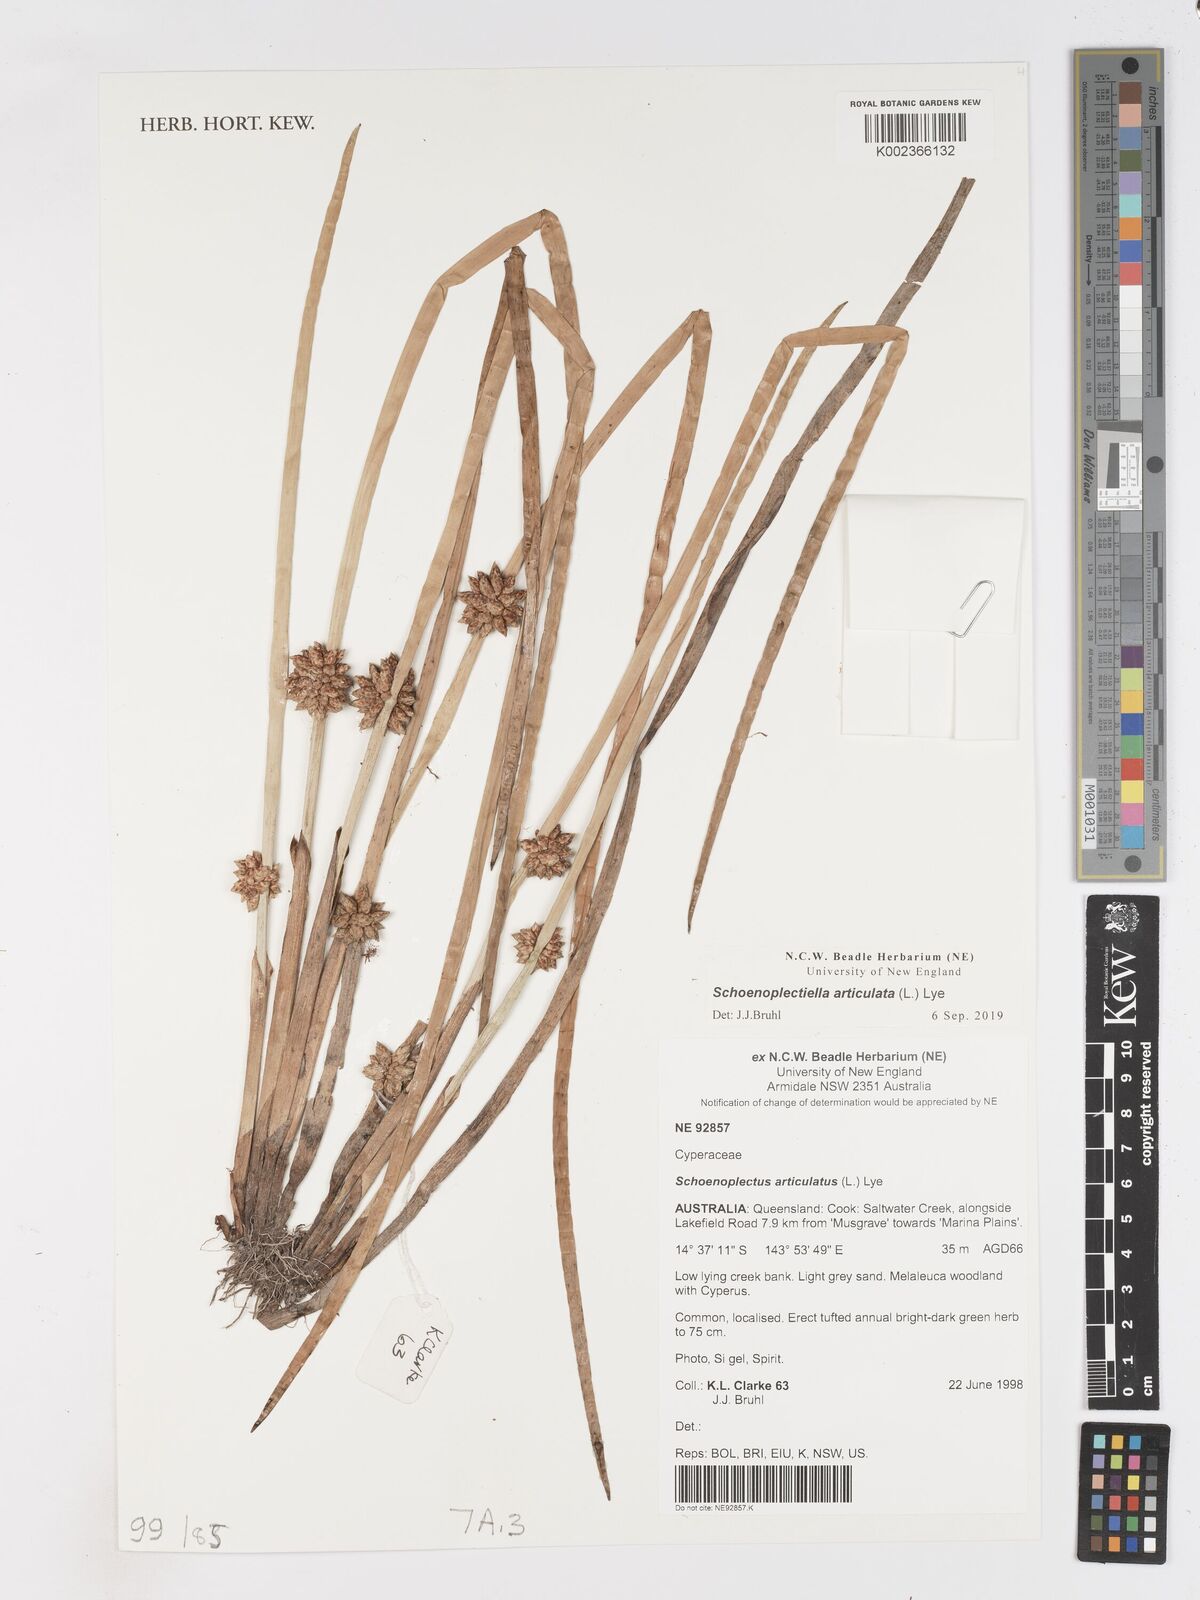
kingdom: Plantae
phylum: Tracheophyta
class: Liliopsida
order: Poales
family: Cyperaceae
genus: Schoenoplectiella
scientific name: Schoenoplectiella articulata
